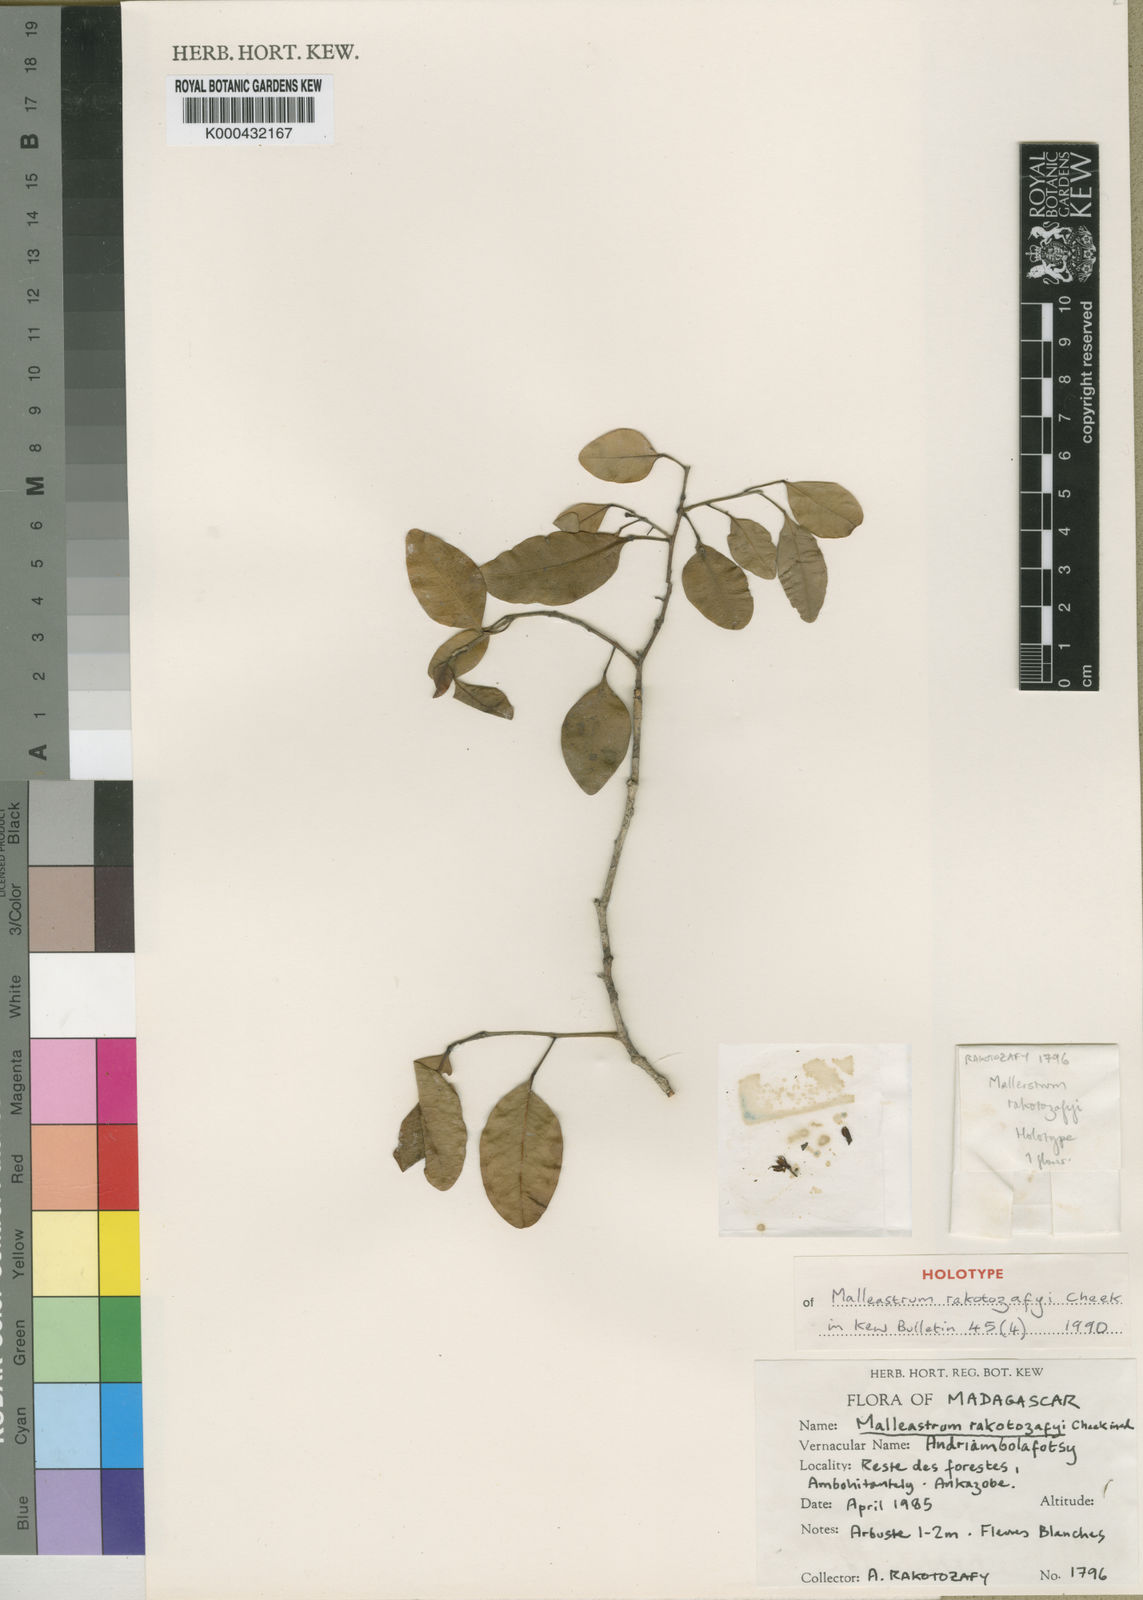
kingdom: Plantae
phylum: Tracheophyta
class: Magnoliopsida
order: Sapindales
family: Meliaceae
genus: Malleastrum
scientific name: Malleastrum rakotozafyi
